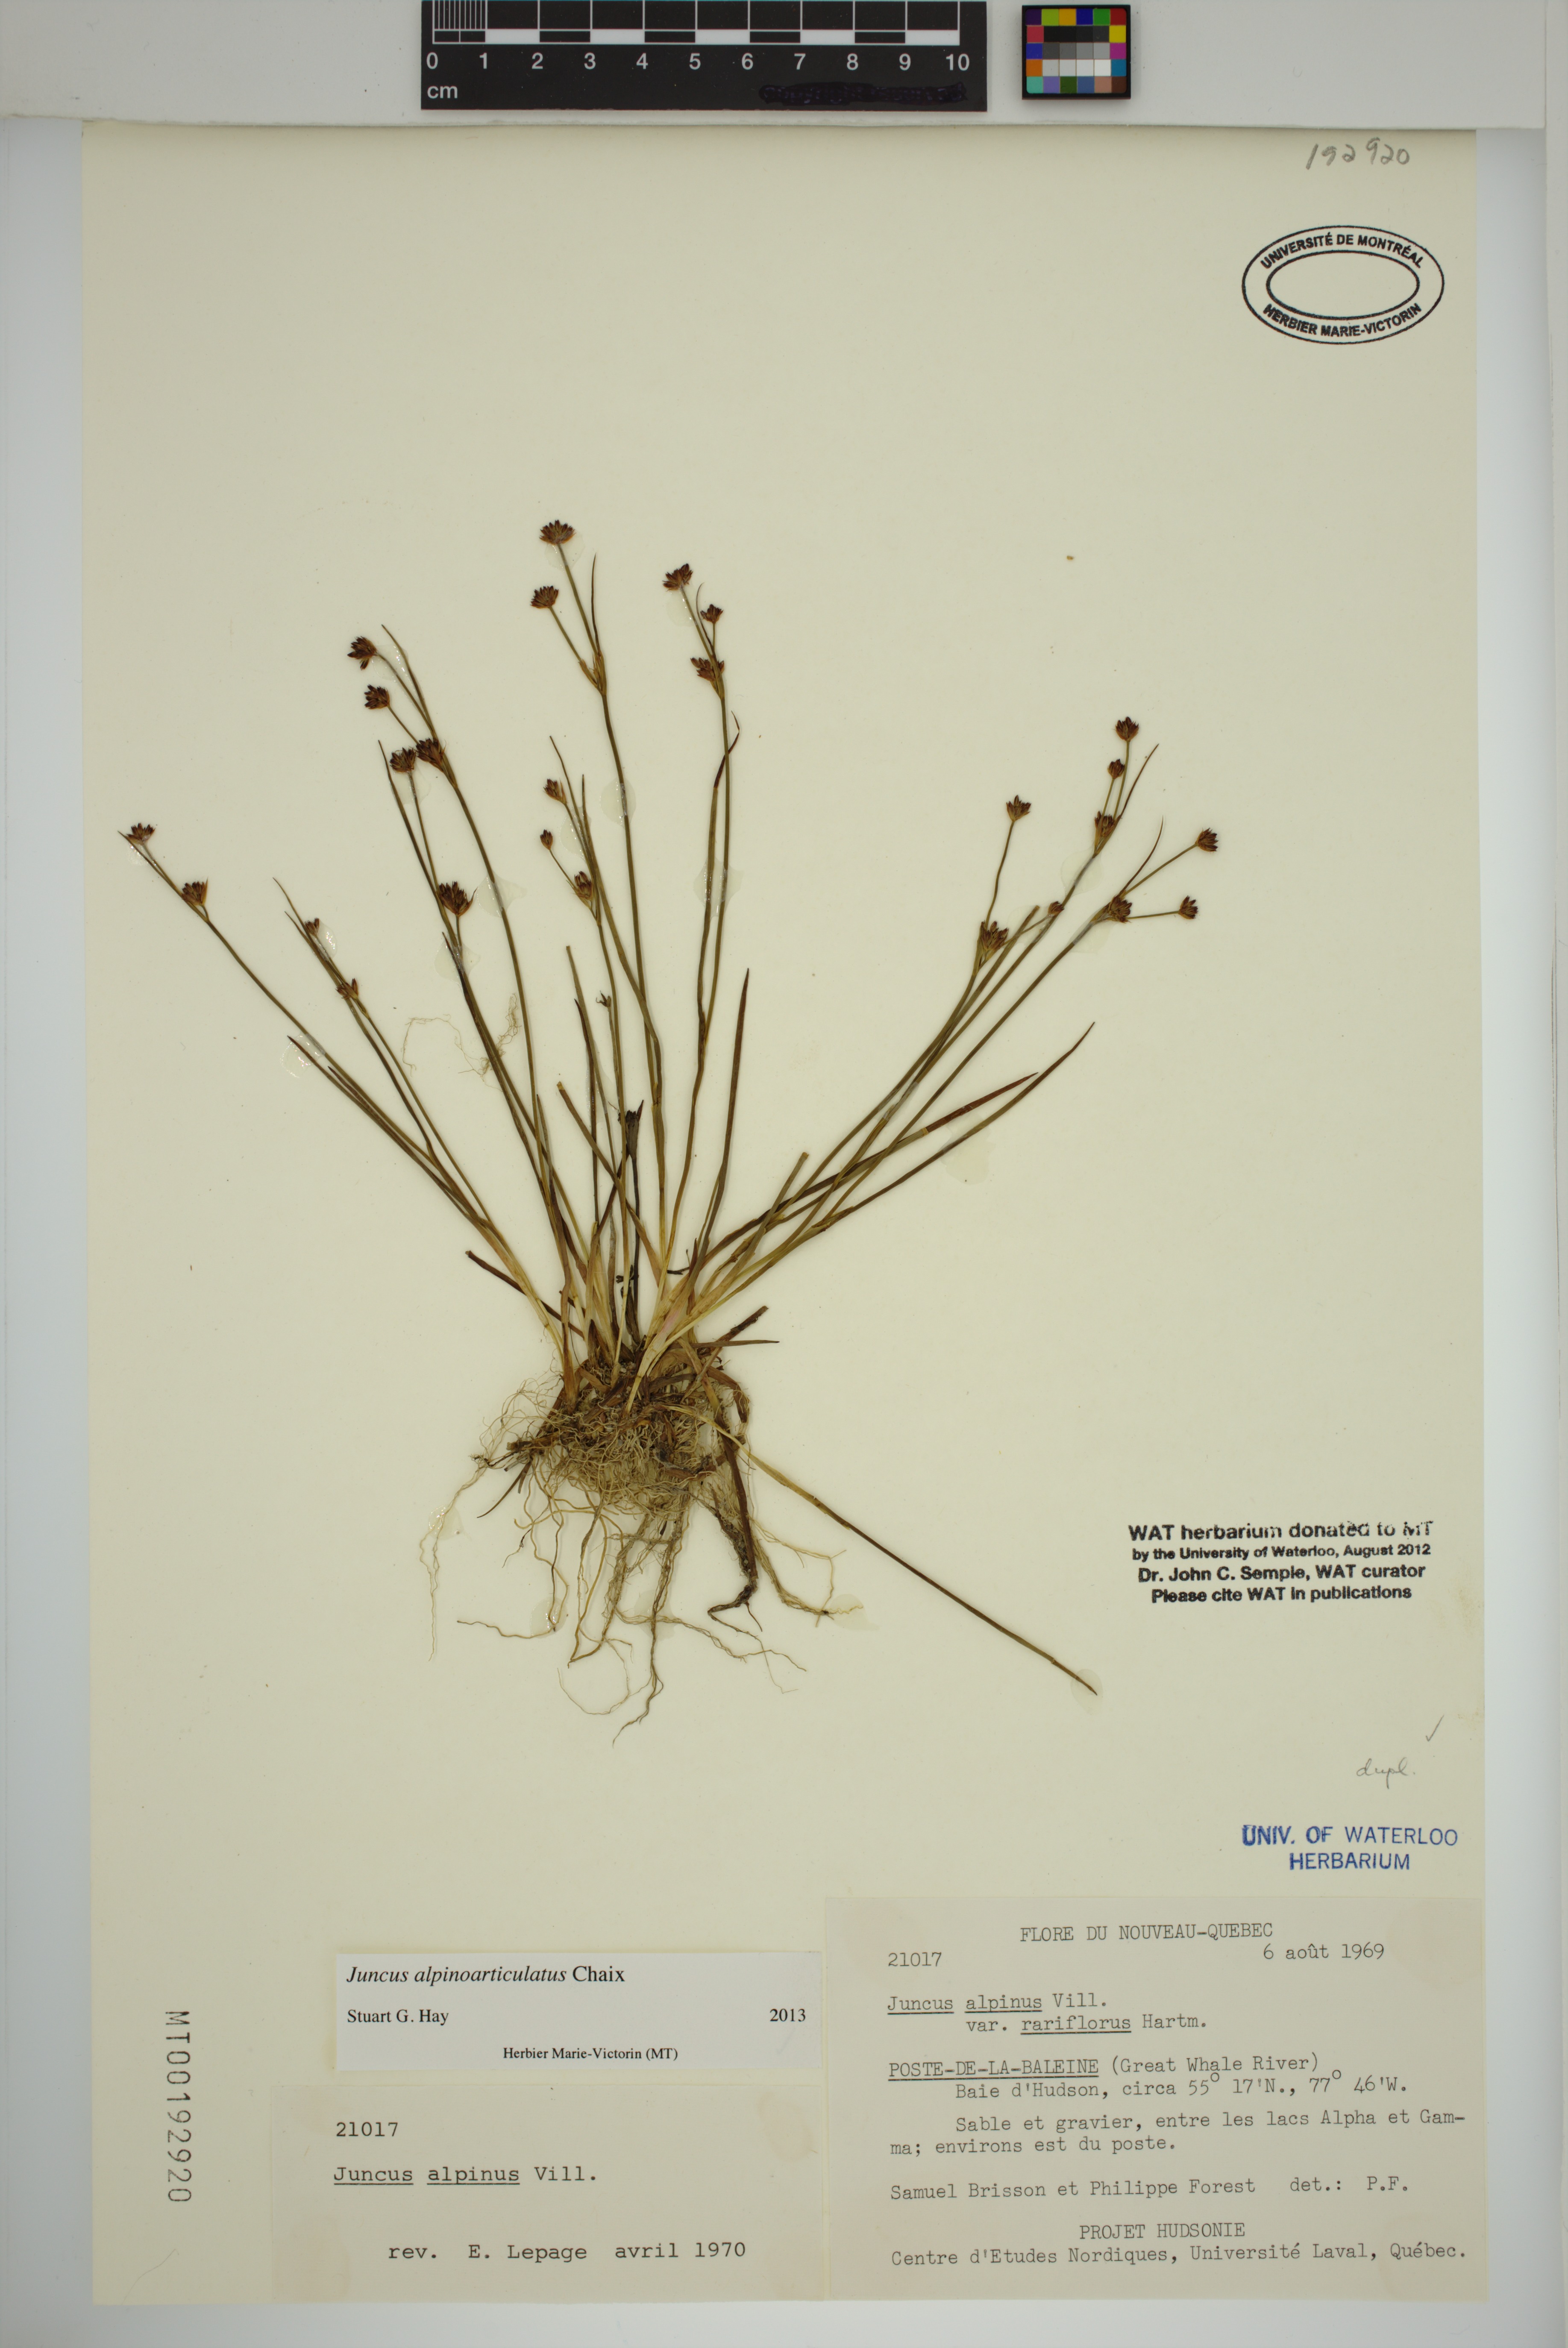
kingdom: Plantae
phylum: Tracheophyta
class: Liliopsida
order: Poales
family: Juncaceae
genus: Juncus
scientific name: Juncus alpinoarticulatus
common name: Alpine rush
